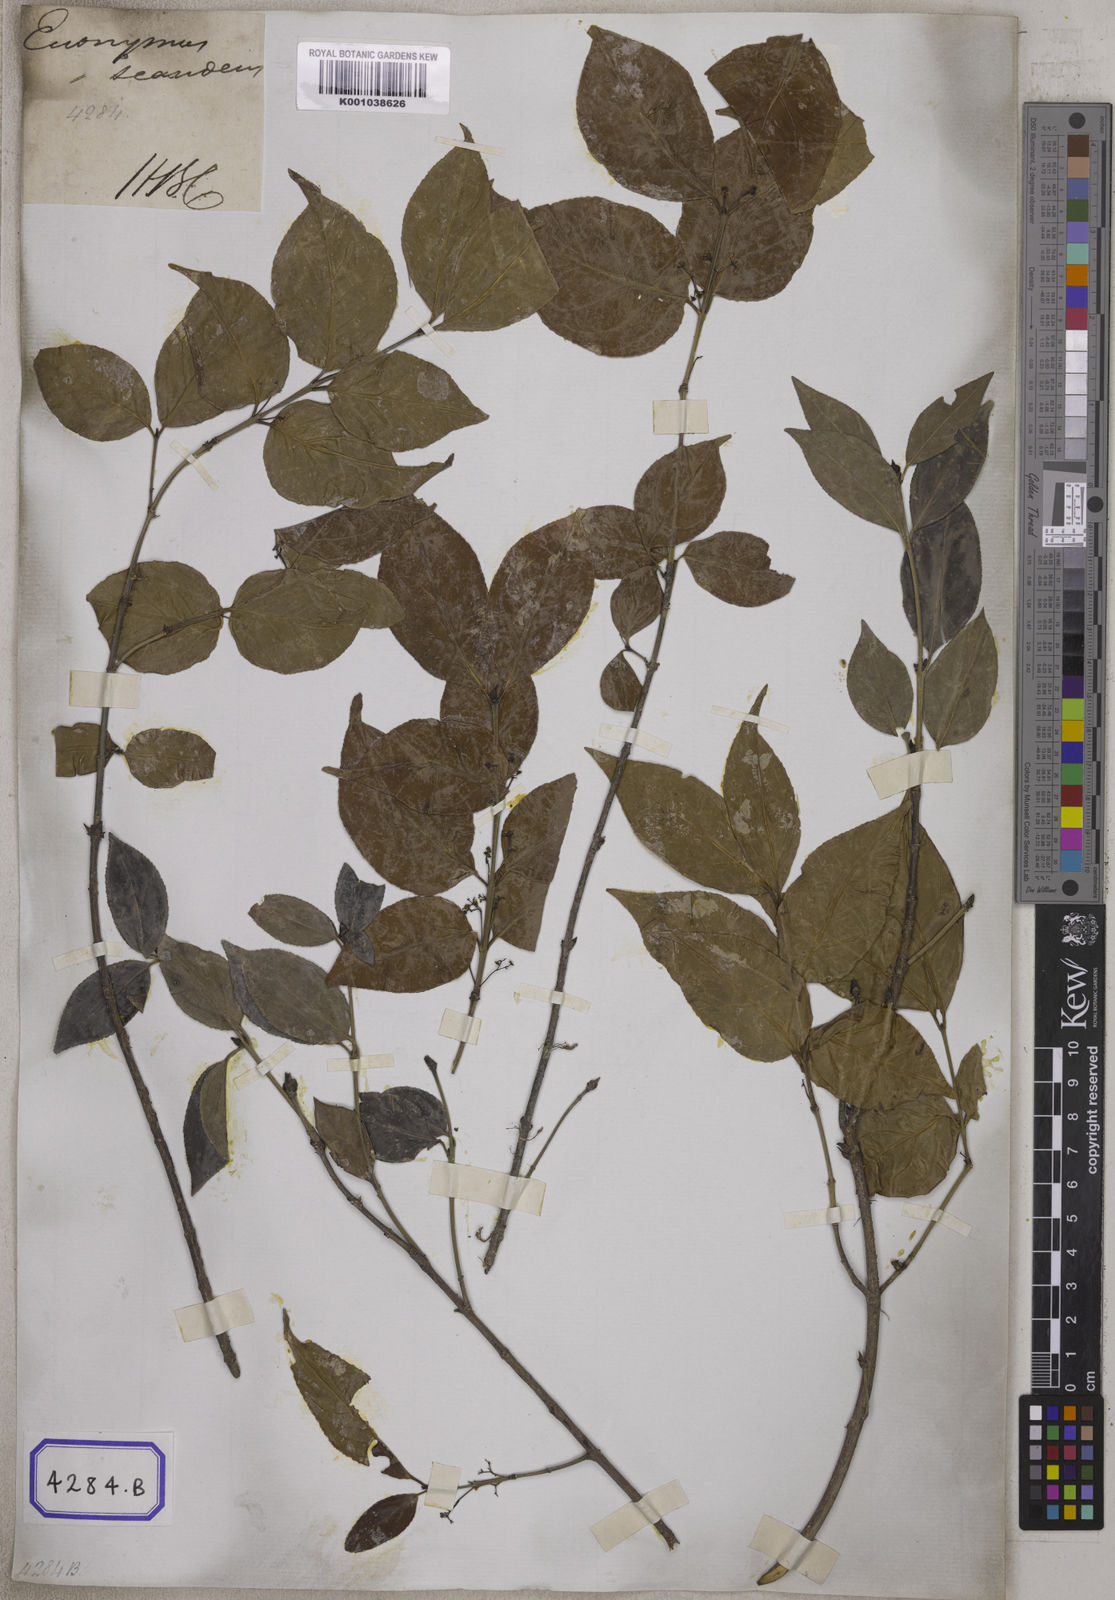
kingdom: Plantae
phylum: Tracheophyta
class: Magnoliopsida
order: Celastrales
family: Celastraceae
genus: Euonymus
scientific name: Euonymus vagans
